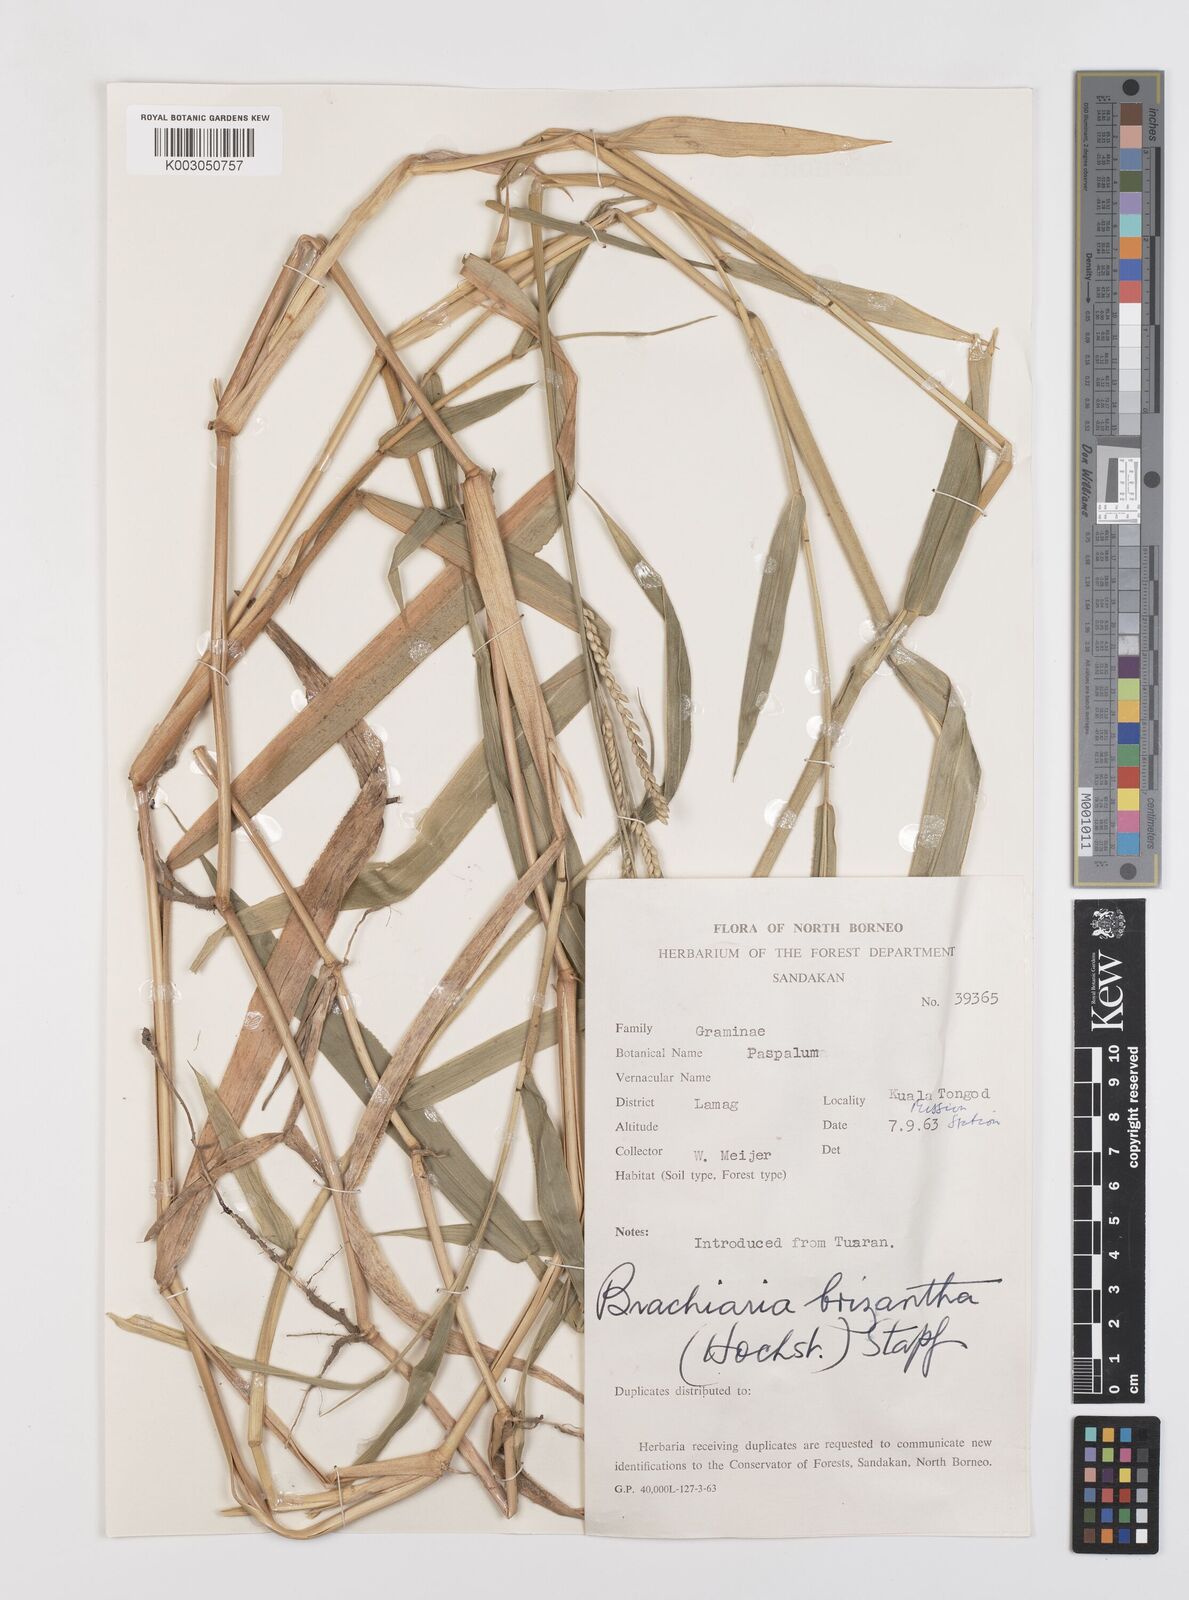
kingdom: Plantae
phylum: Tracheophyta
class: Liliopsida
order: Poales
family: Poaceae
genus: Urochloa
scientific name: Urochloa brizantha
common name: Palisade signalgrass
